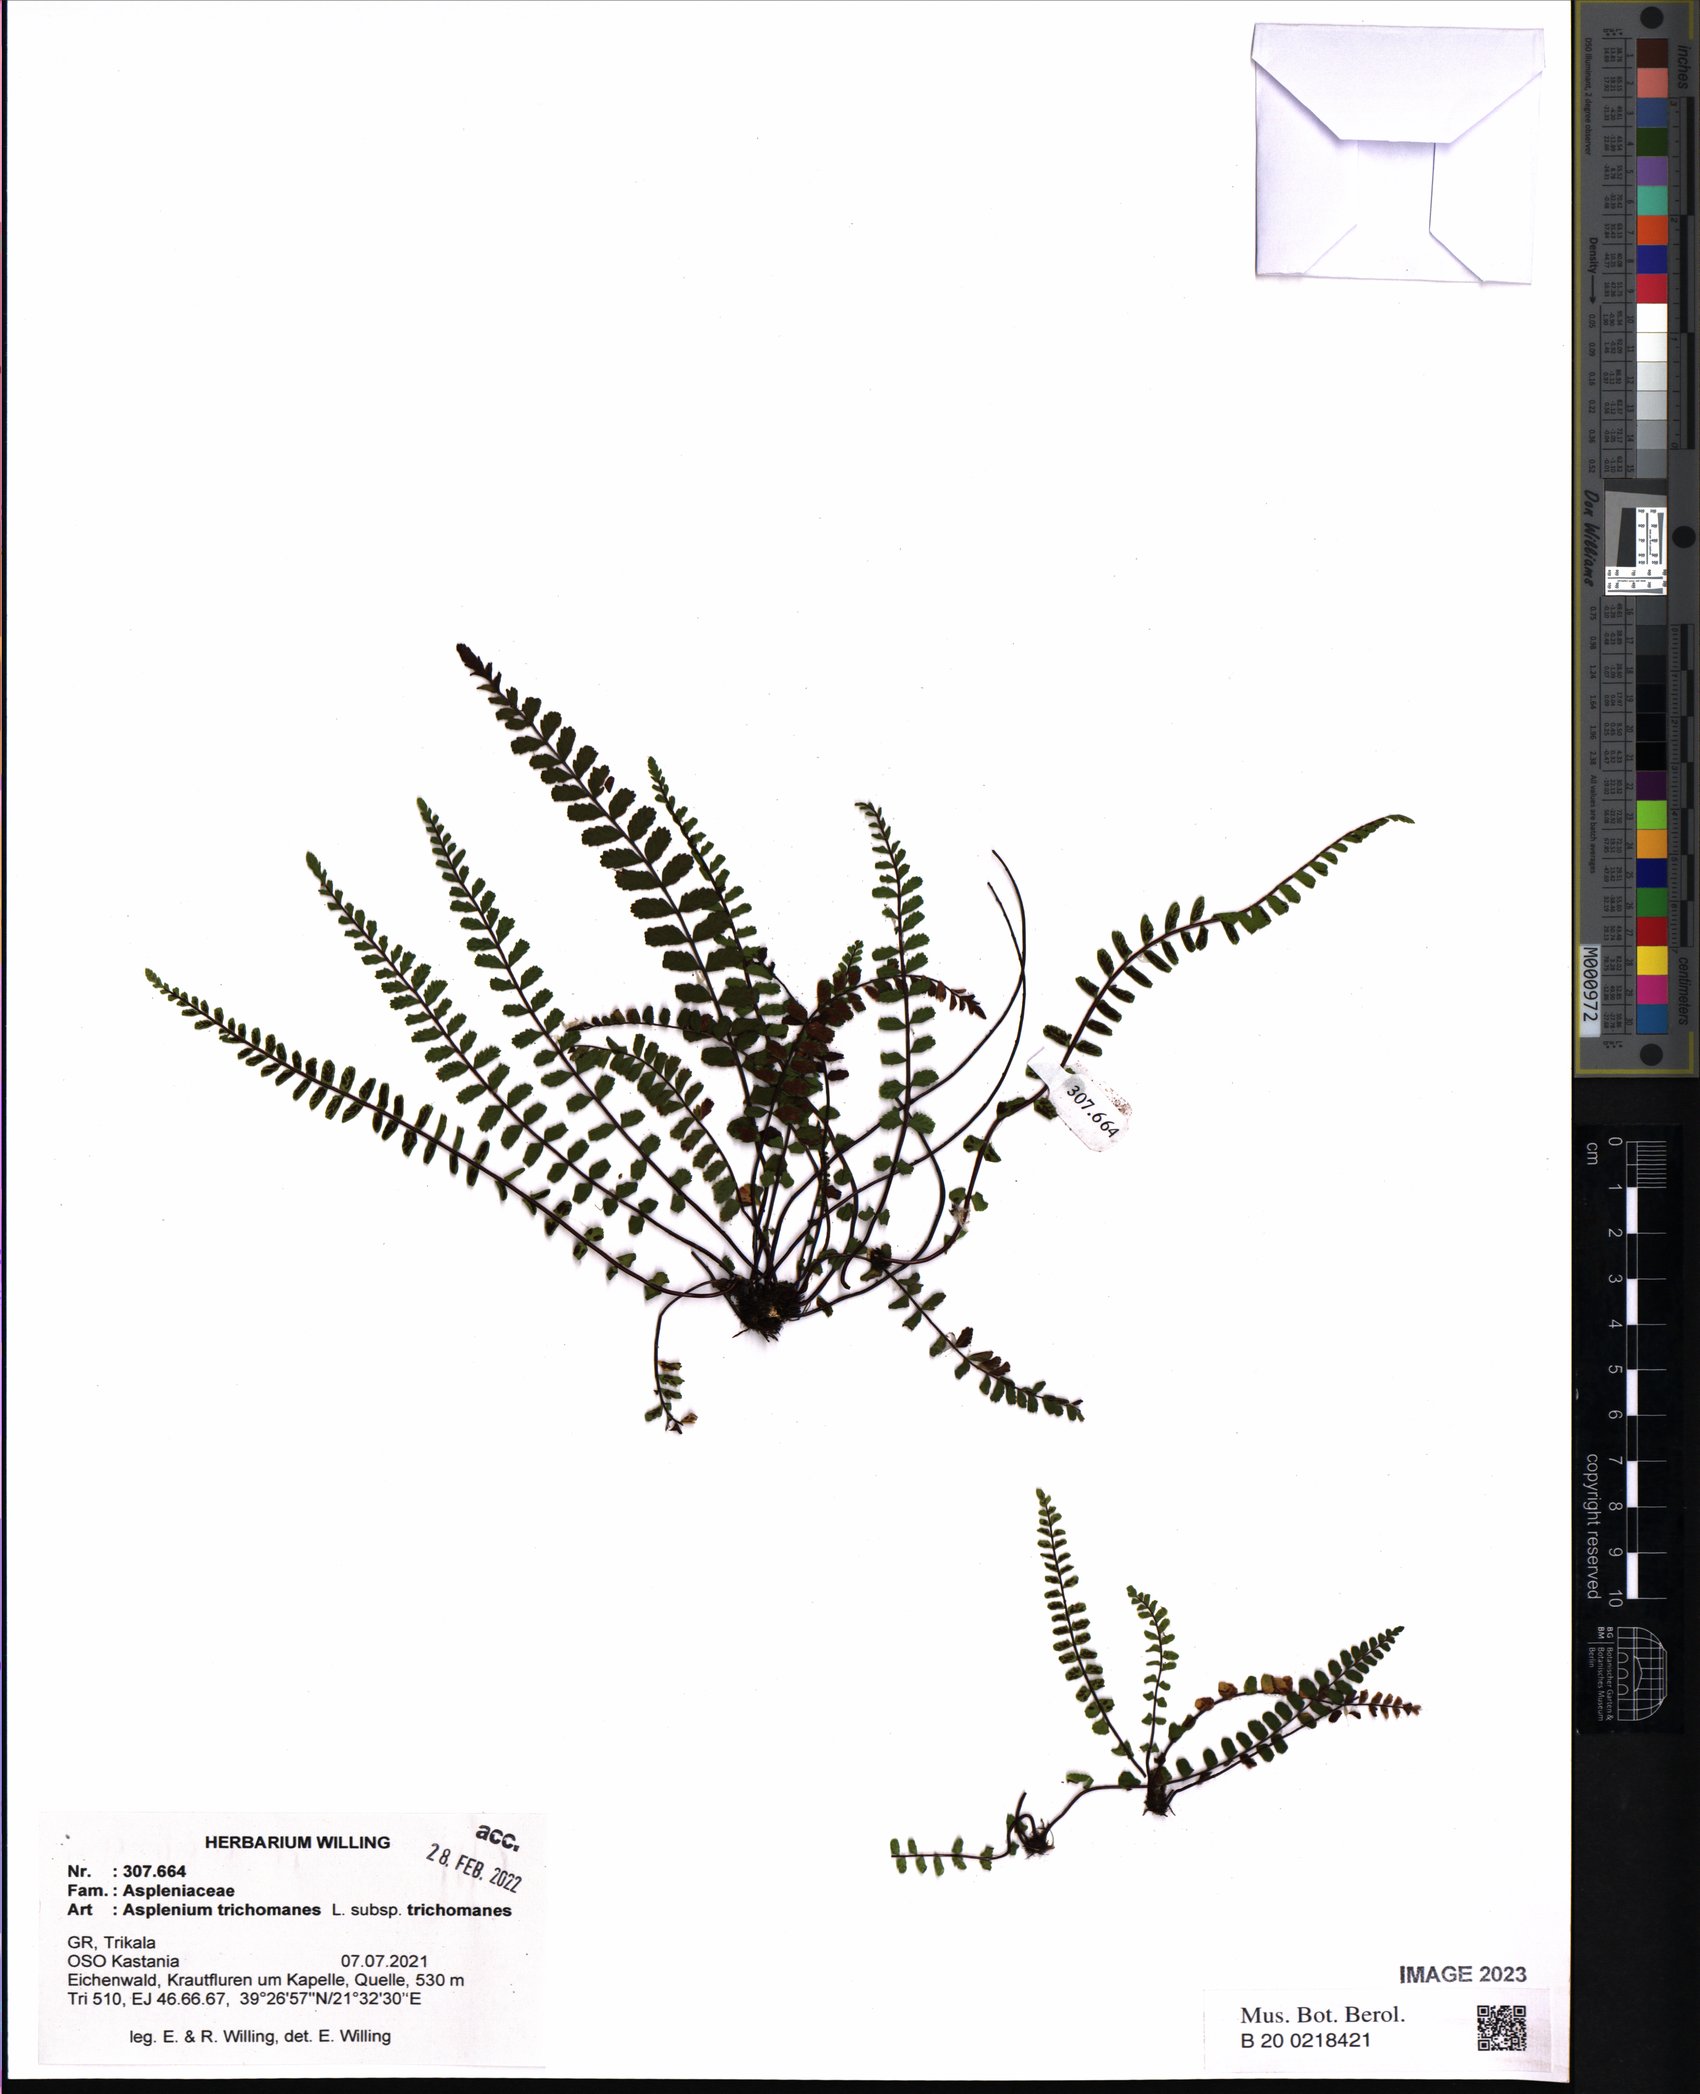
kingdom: Plantae
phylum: Tracheophyta
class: Polypodiopsida
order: Polypodiales
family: Aspleniaceae
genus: Asplenium
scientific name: Asplenium trichomanes
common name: Maidenhair spleenwort
